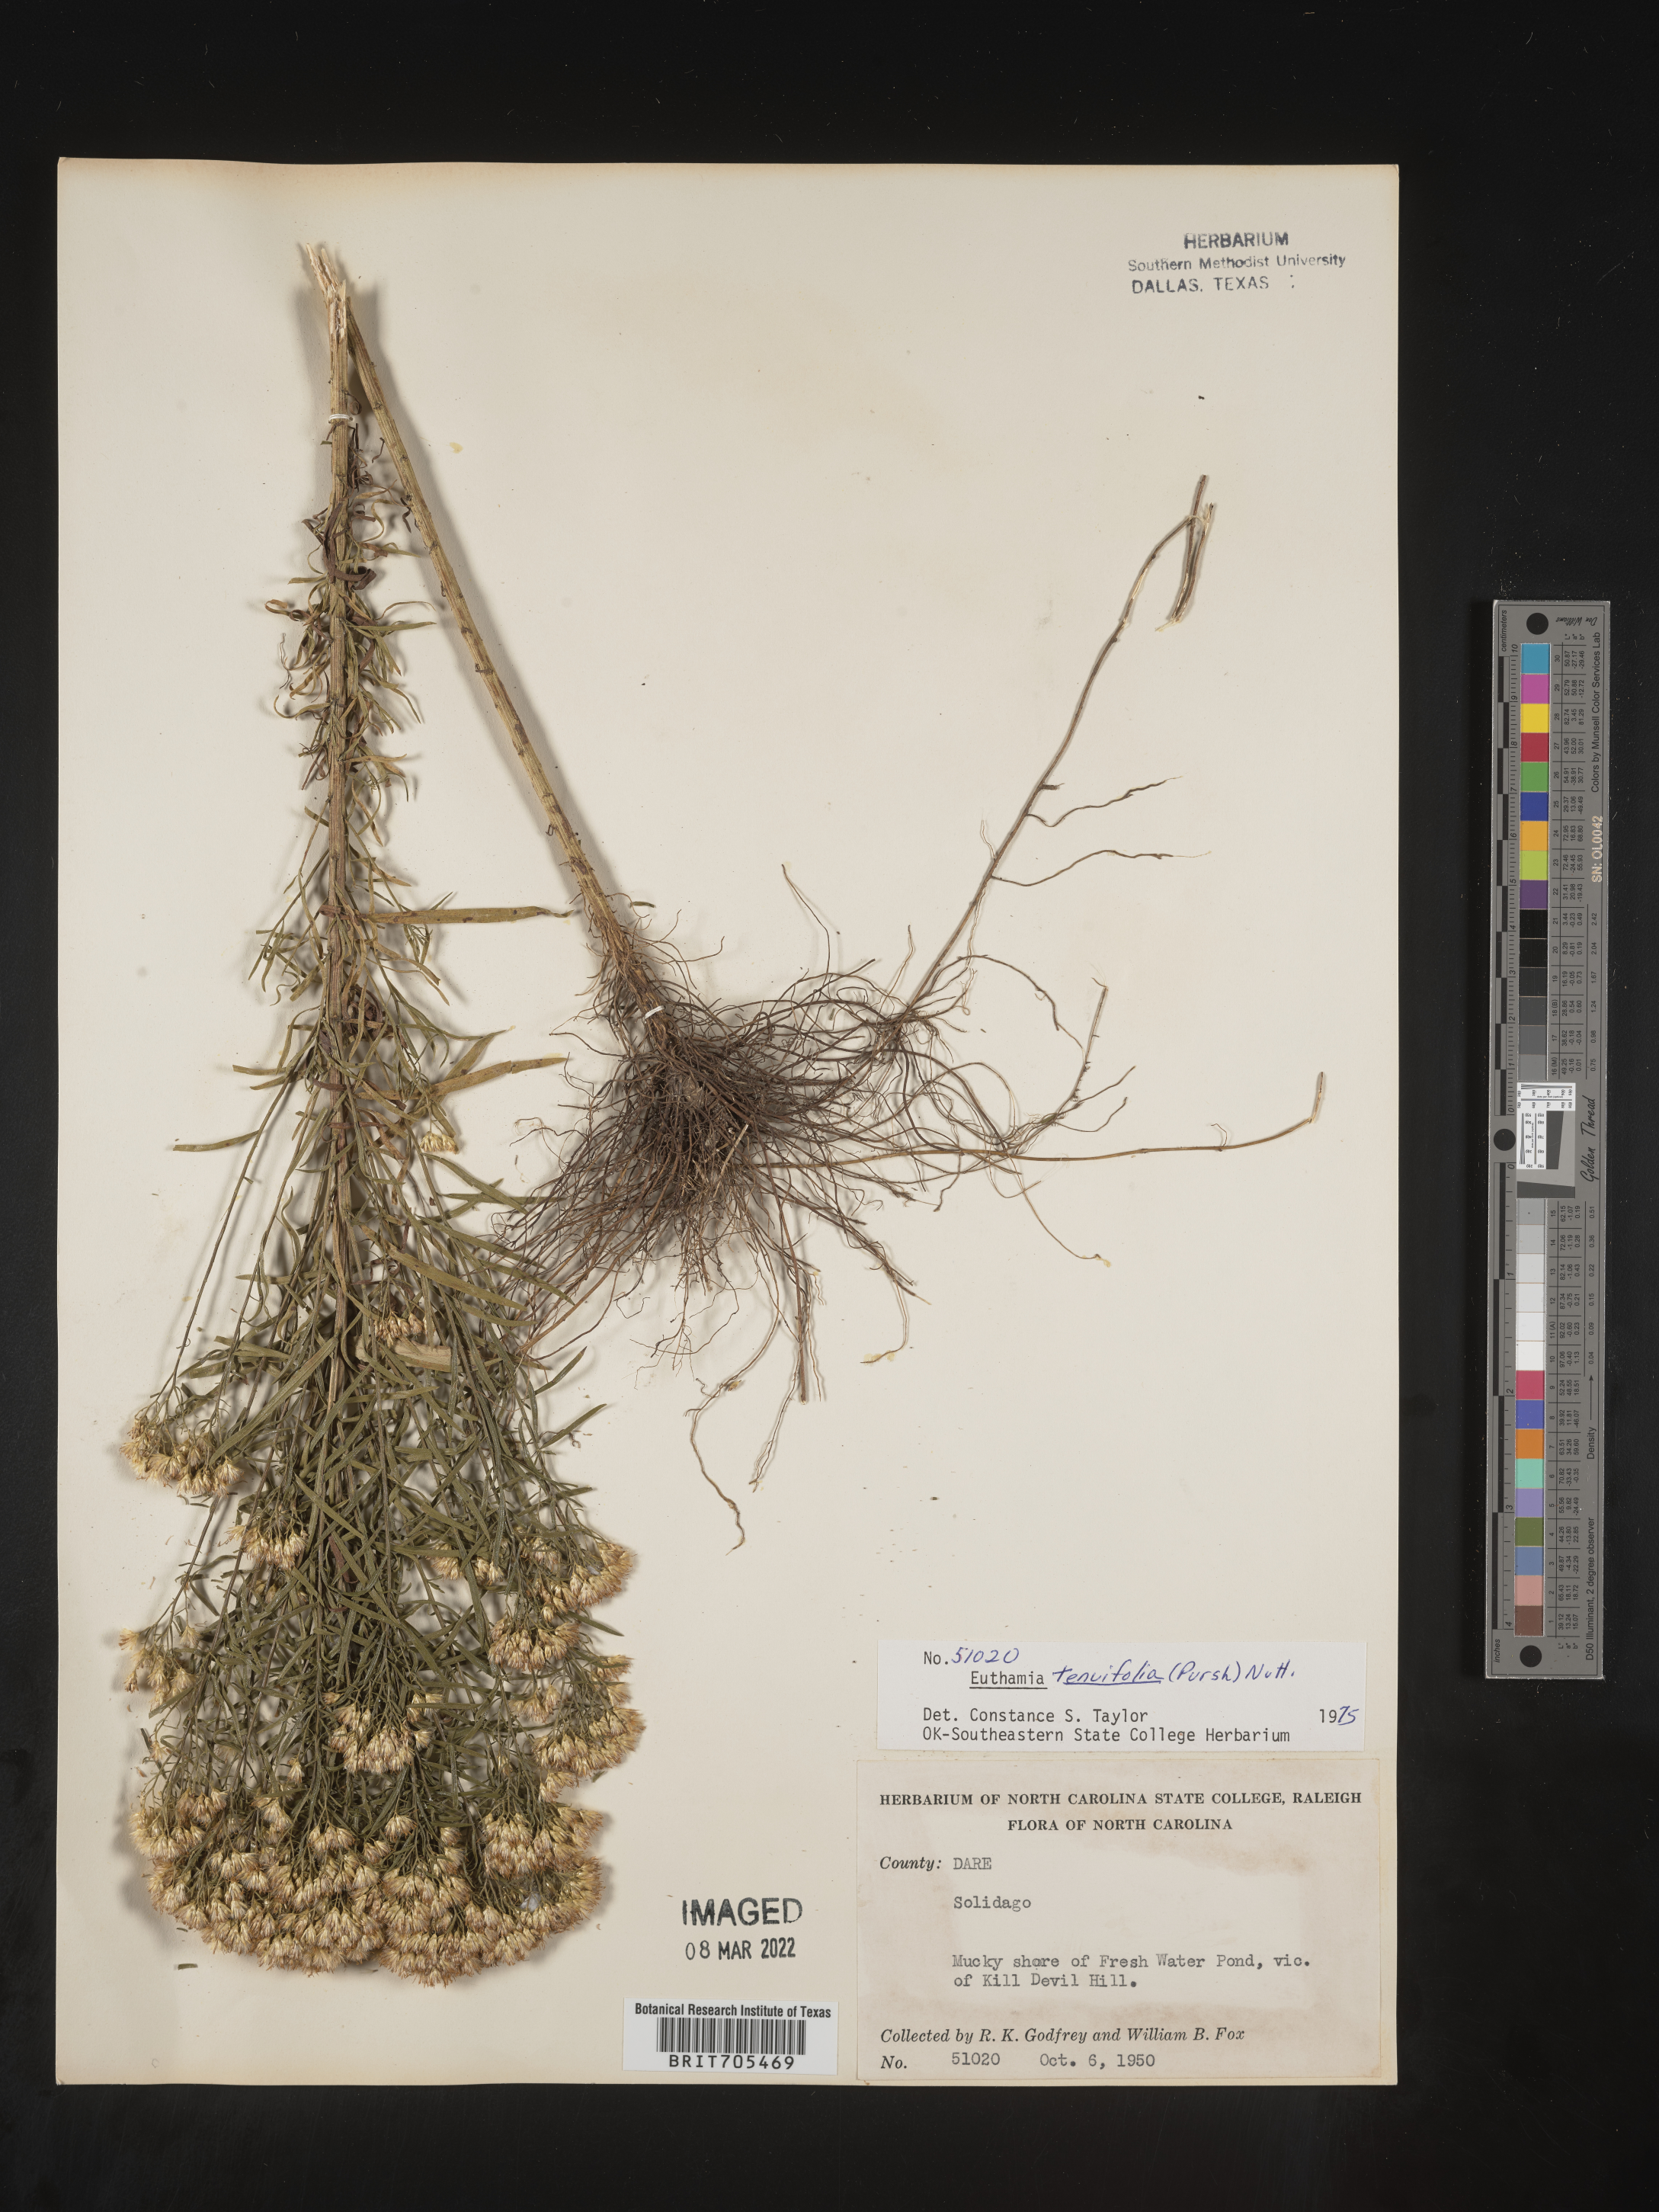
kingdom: Plantae
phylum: Tracheophyta
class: Magnoliopsida
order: Asterales
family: Asteraceae
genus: Euthamia
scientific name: Euthamia caroliniana
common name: Coastal plain goldentop
